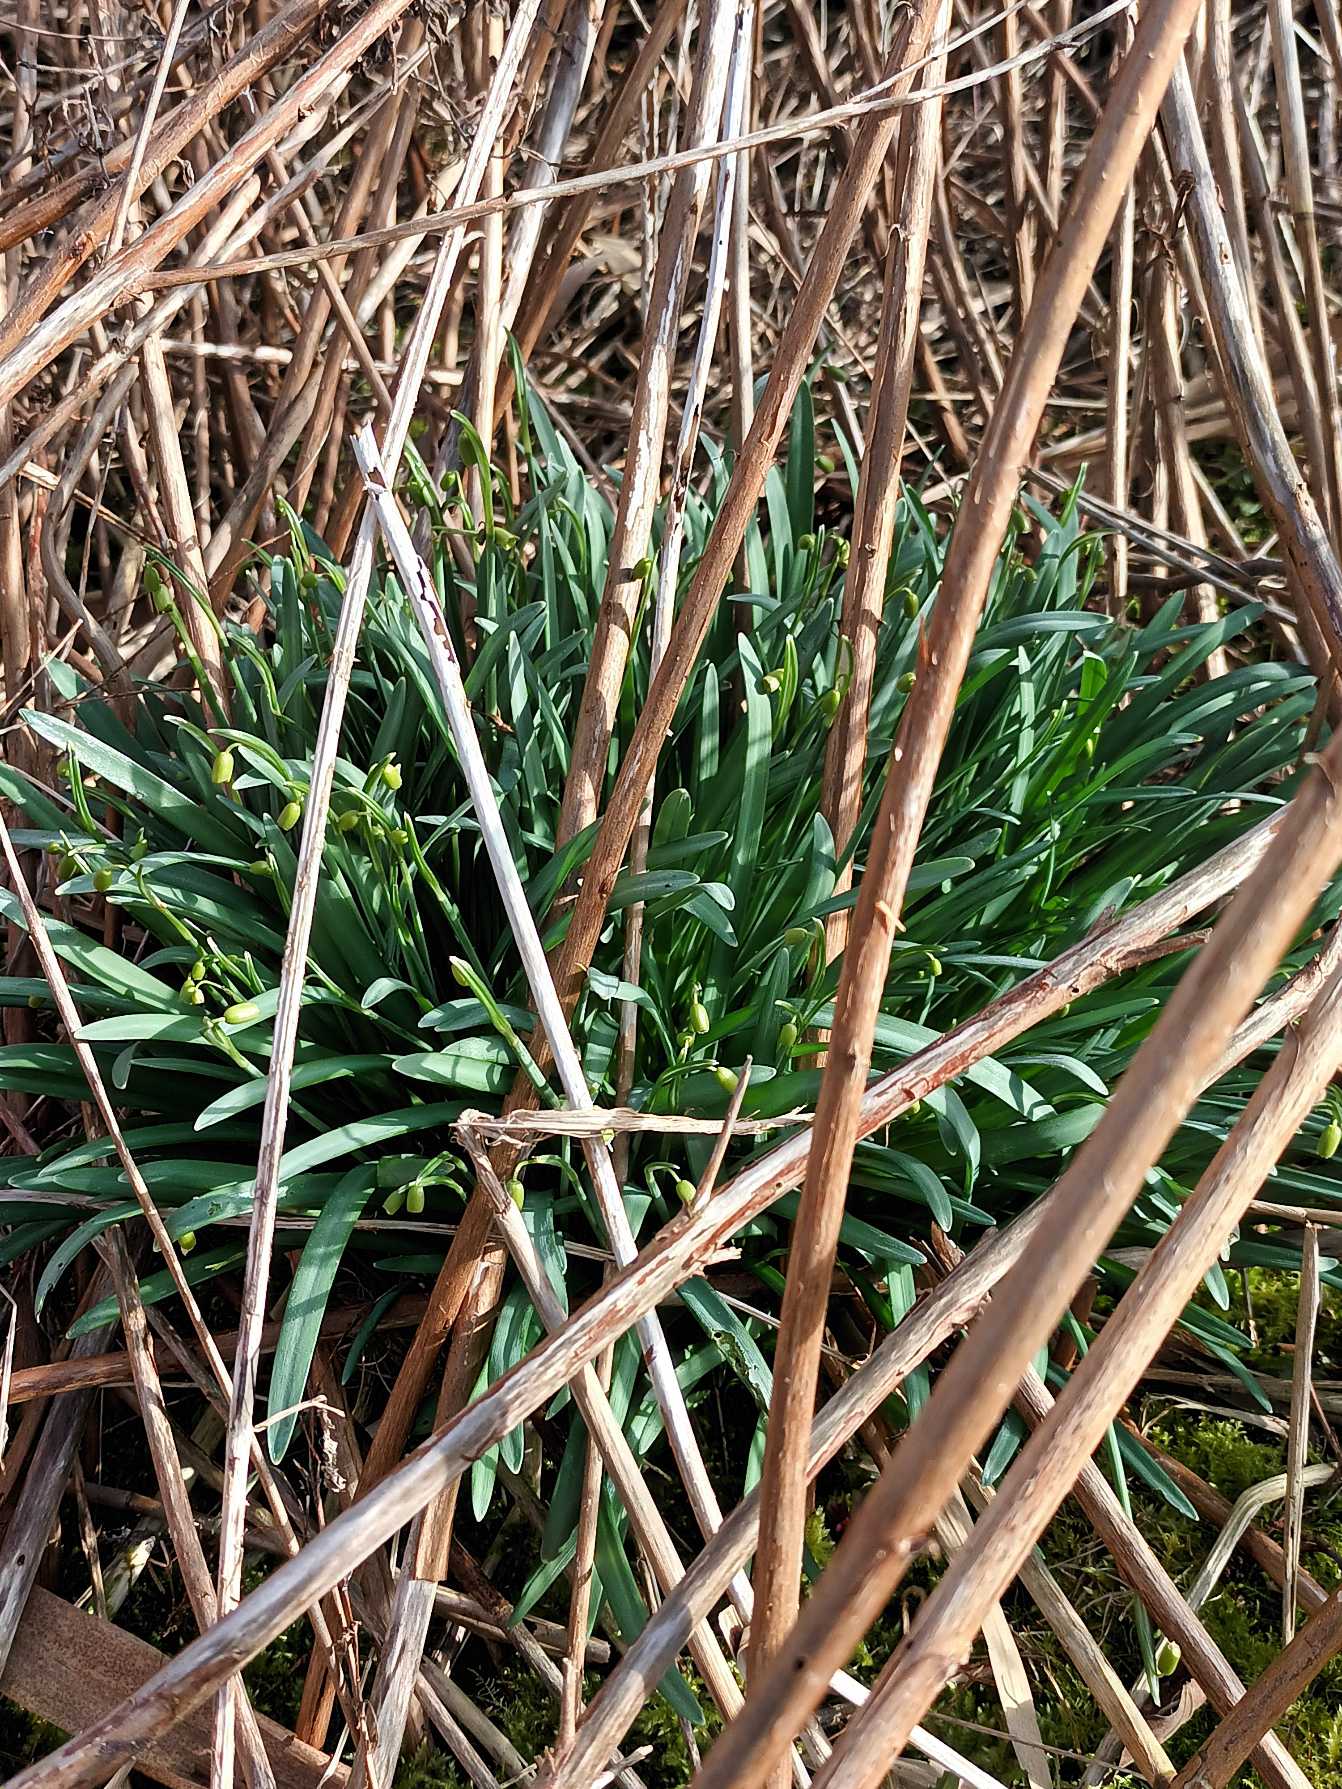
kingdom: Plantae
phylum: Tracheophyta
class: Liliopsida
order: Asparagales
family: Amaryllidaceae
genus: Galanthus
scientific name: Galanthus nivalis
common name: Vintergæk
